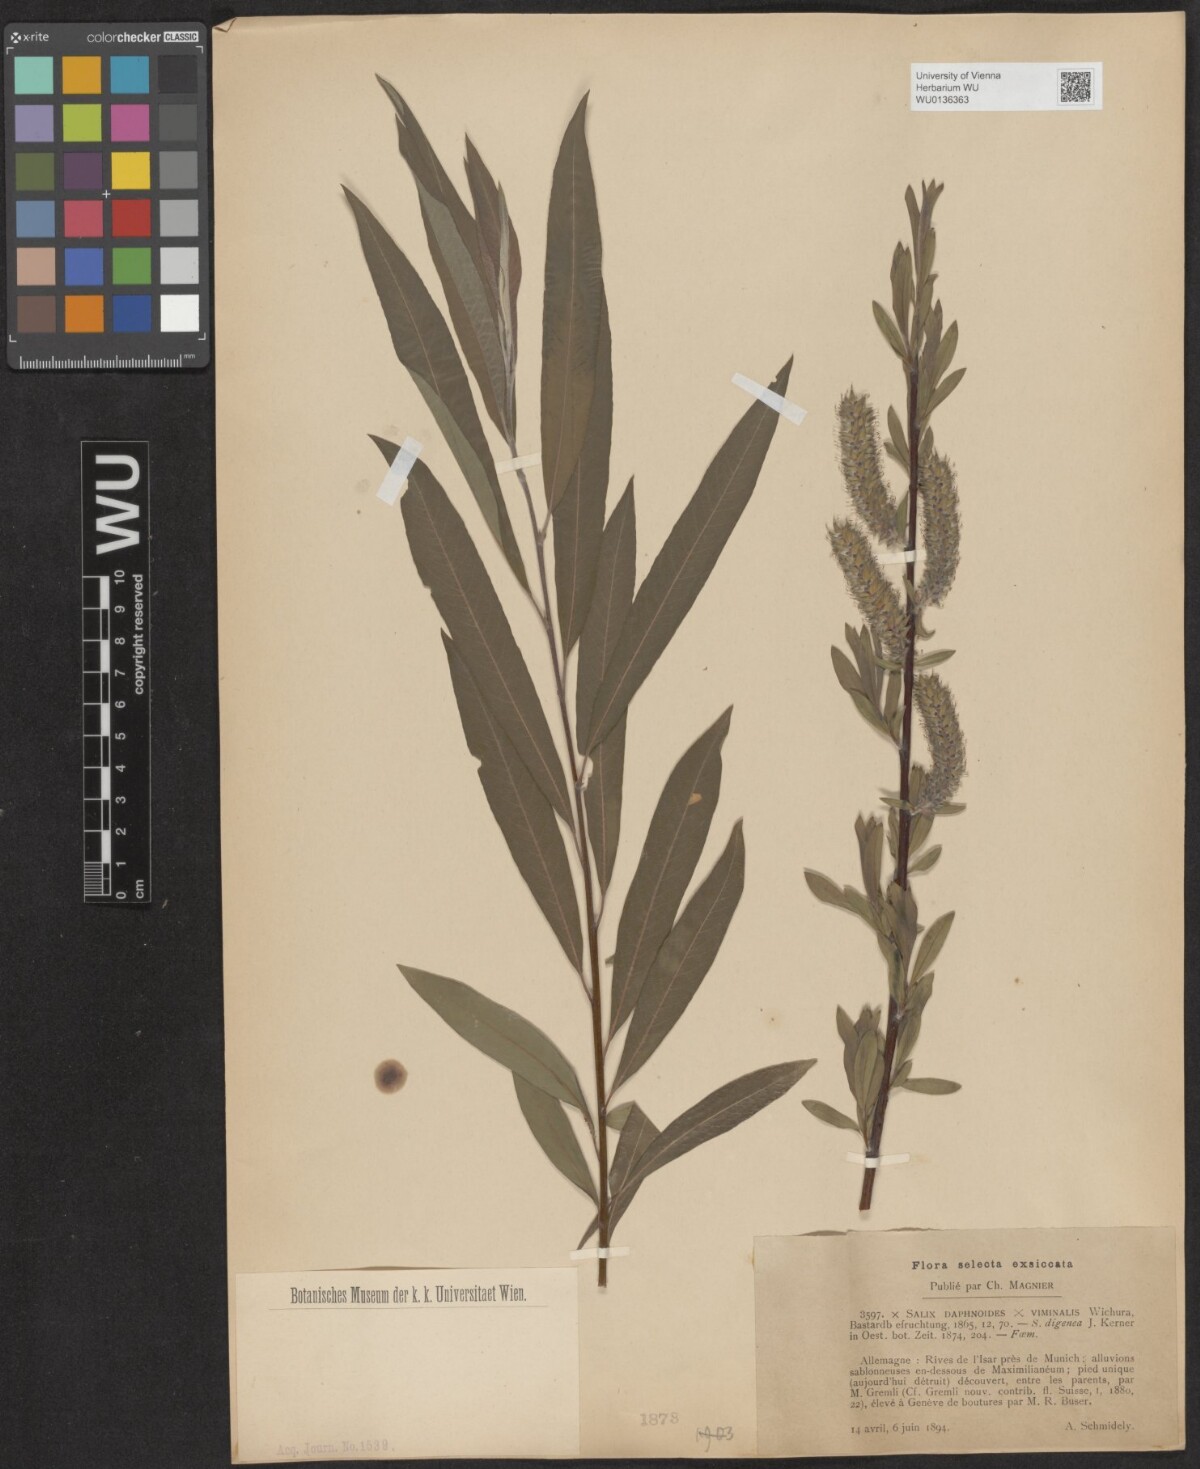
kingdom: Plantae
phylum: Tracheophyta
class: Magnoliopsida
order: Malpighiales
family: Salicaceae
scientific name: Salicaceae
